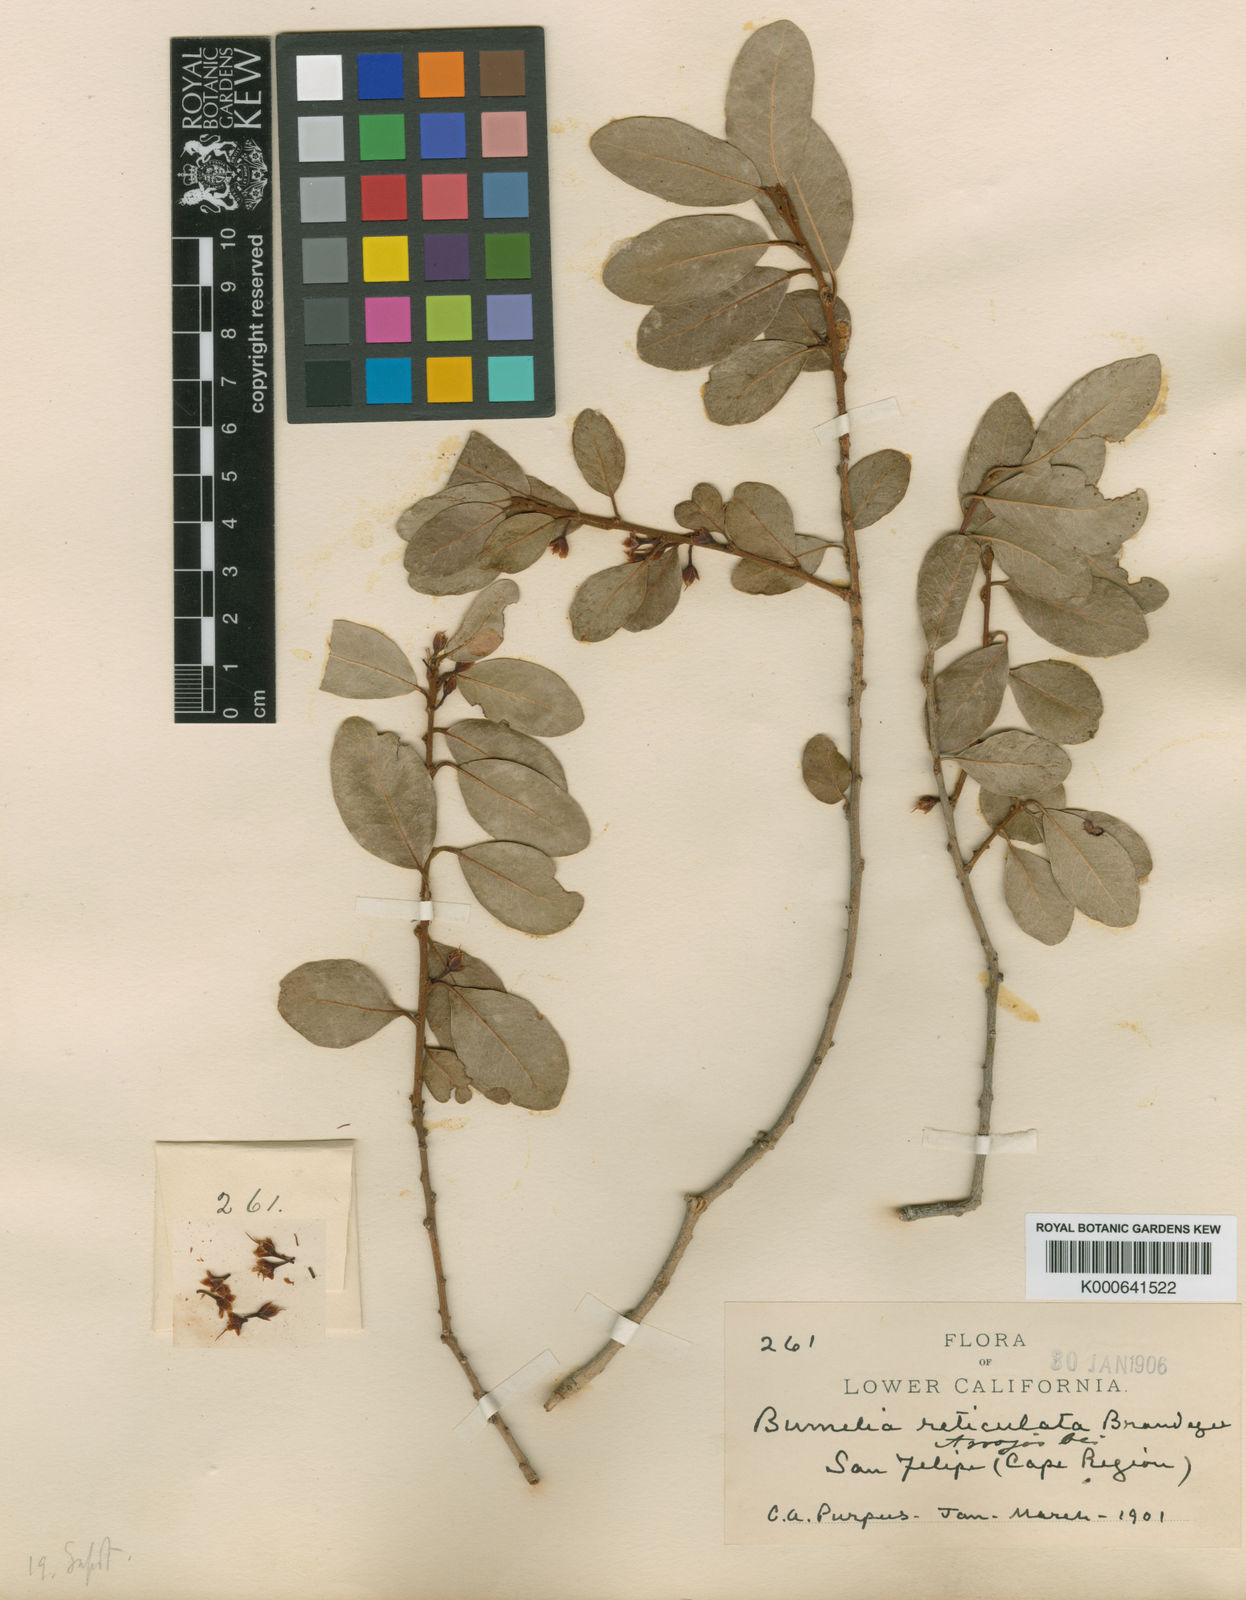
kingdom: Plantae
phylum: Tracheophyta
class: Magnoliopsida
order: Ericales
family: Sapotaceae
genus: Sideroxylon
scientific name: Sideroxylon peninsulare
